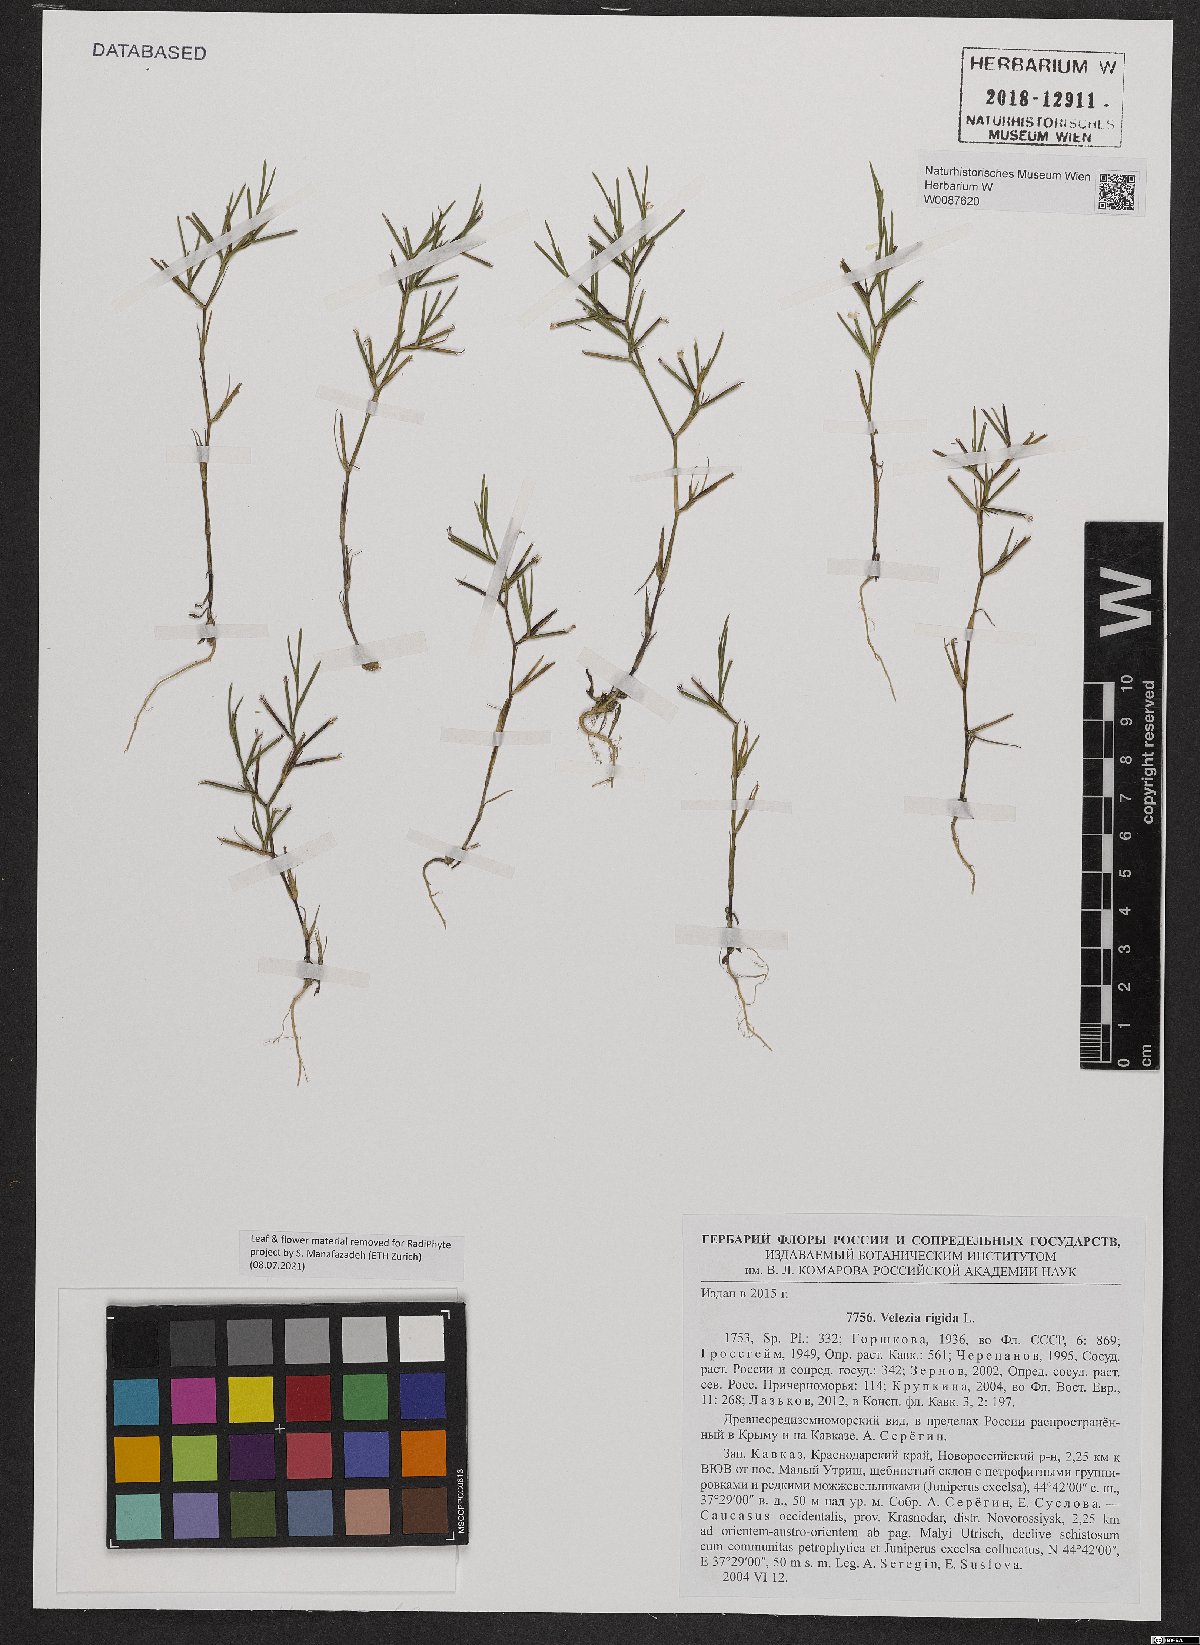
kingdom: Plantae
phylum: Tracheophyta
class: Magnoliopsida
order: Caryophyllales
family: Caryophyllaceae
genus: Dianthus
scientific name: Dianthus nudiflorus
